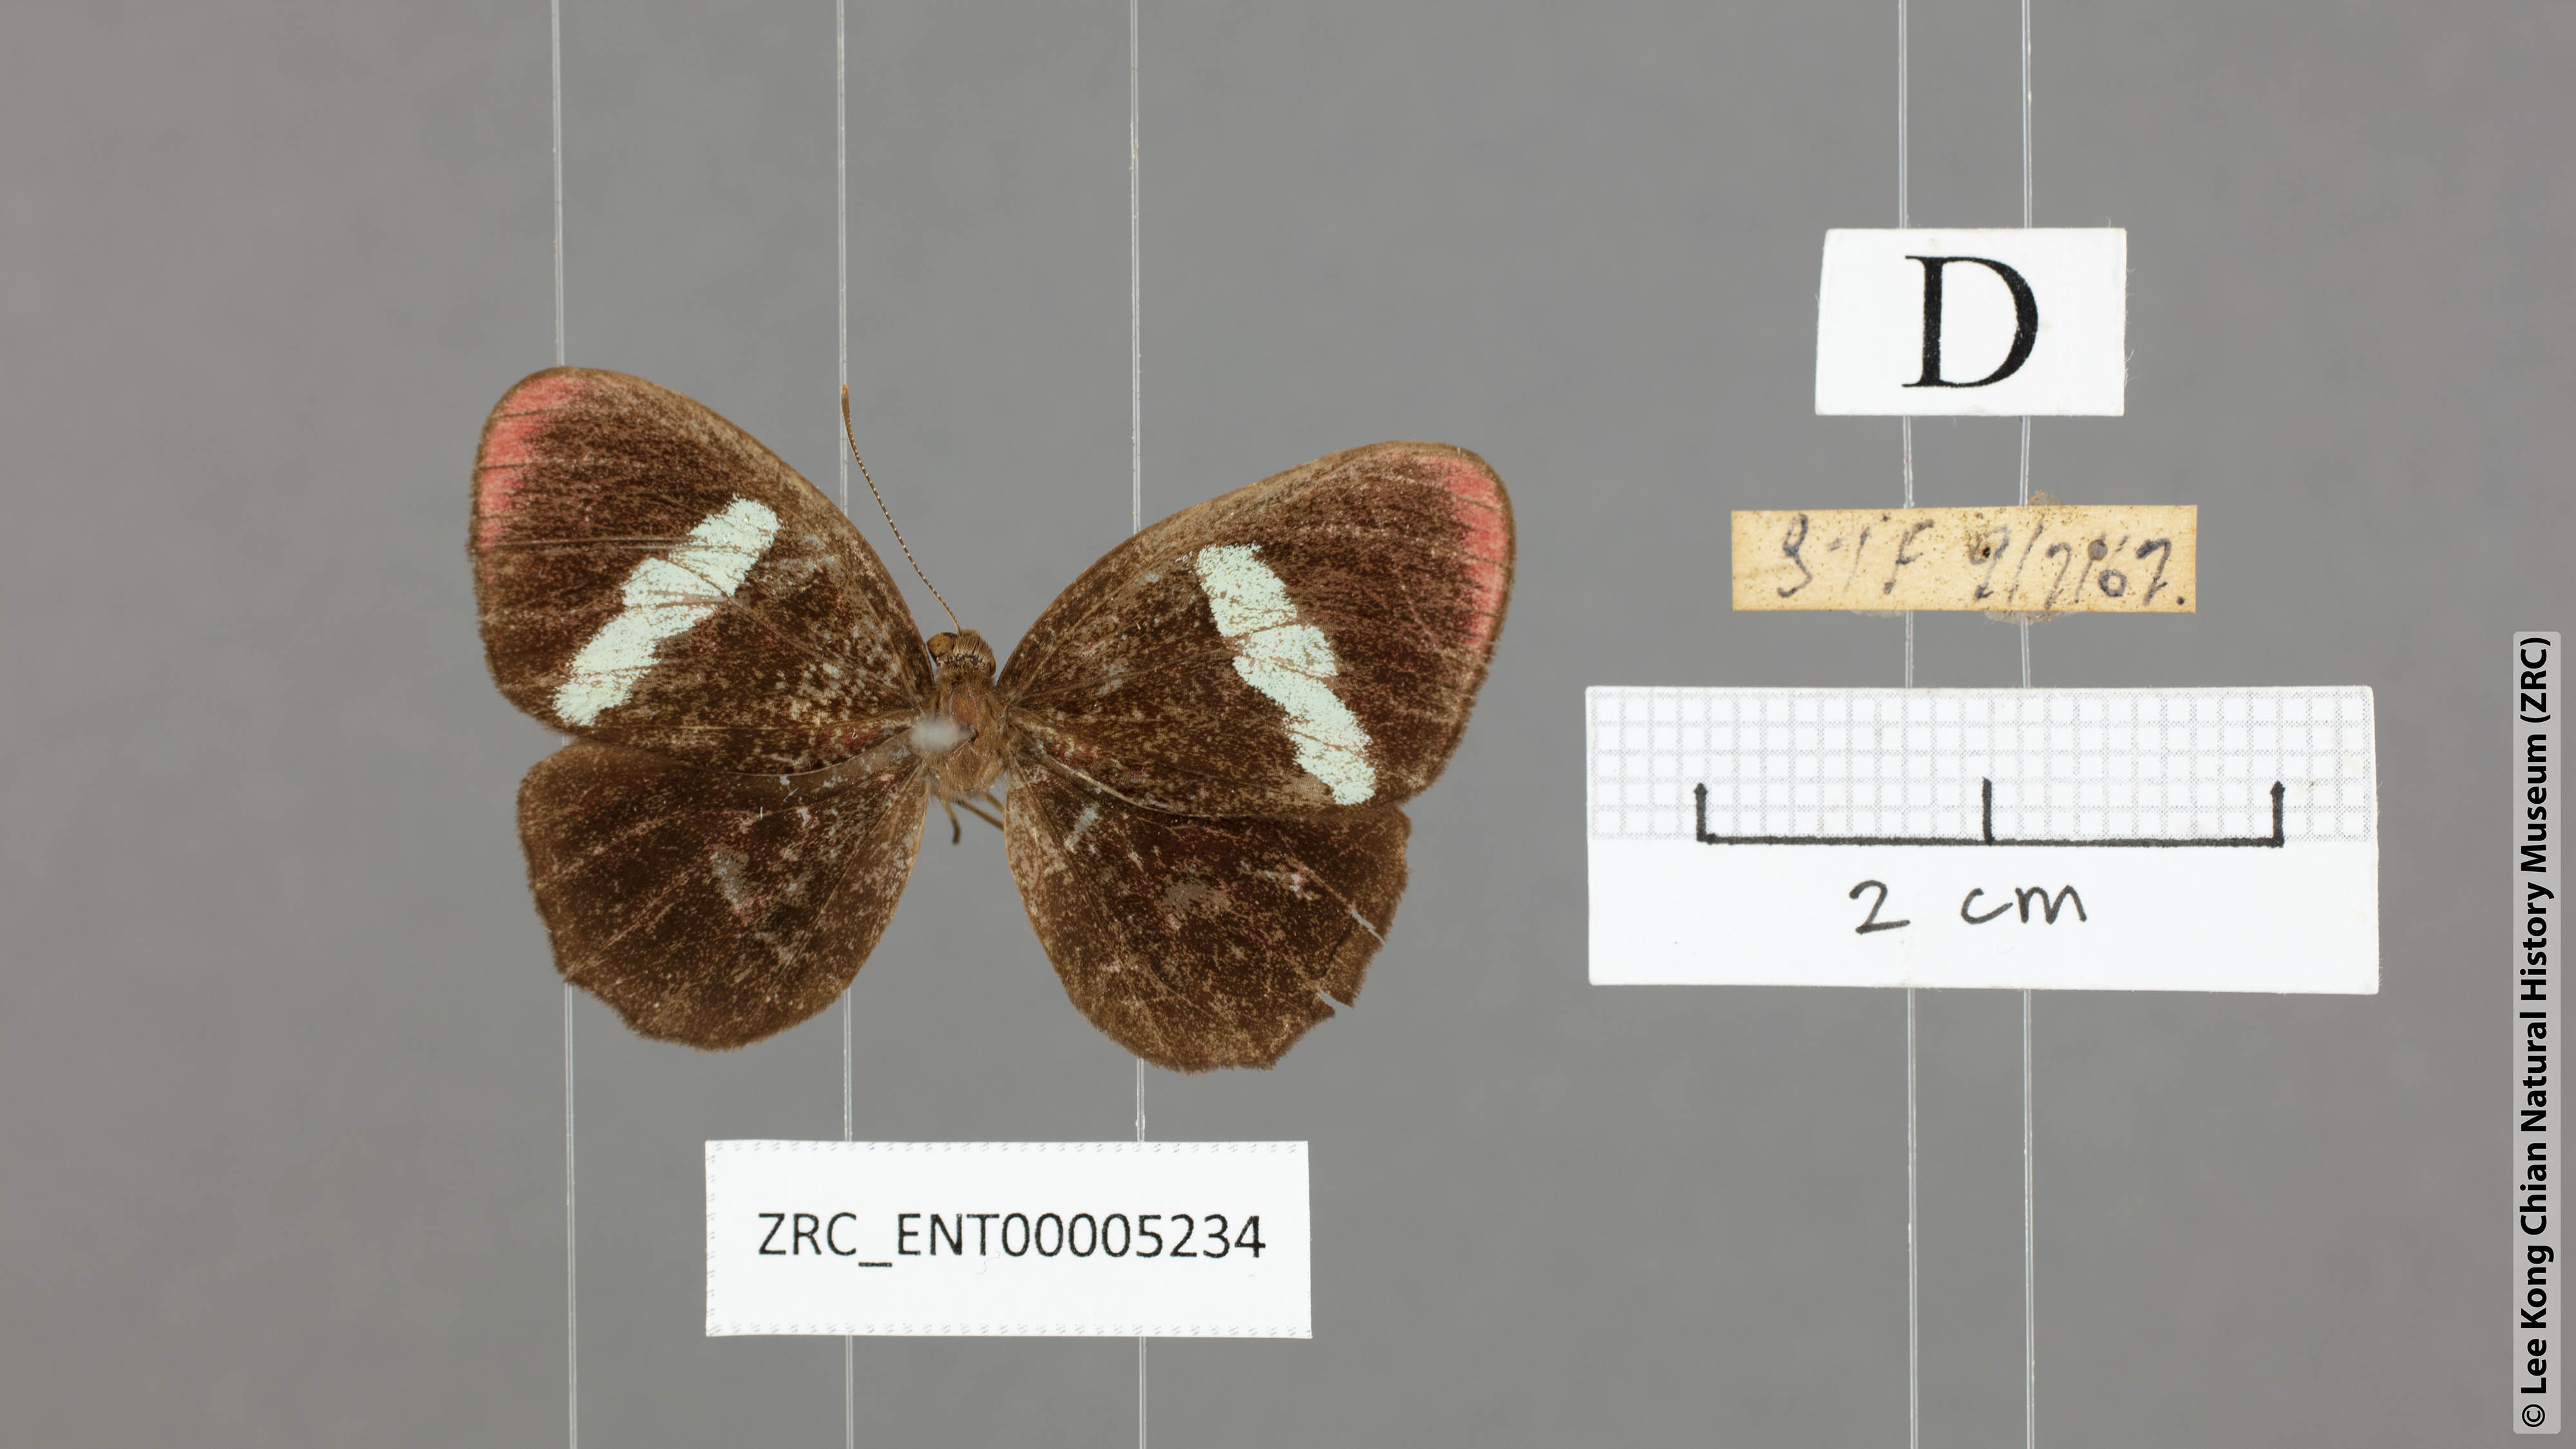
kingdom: Animalia
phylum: Arthropoda
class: Insecta
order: Lepidoptera
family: Riodinidae
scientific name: Riodinidae
